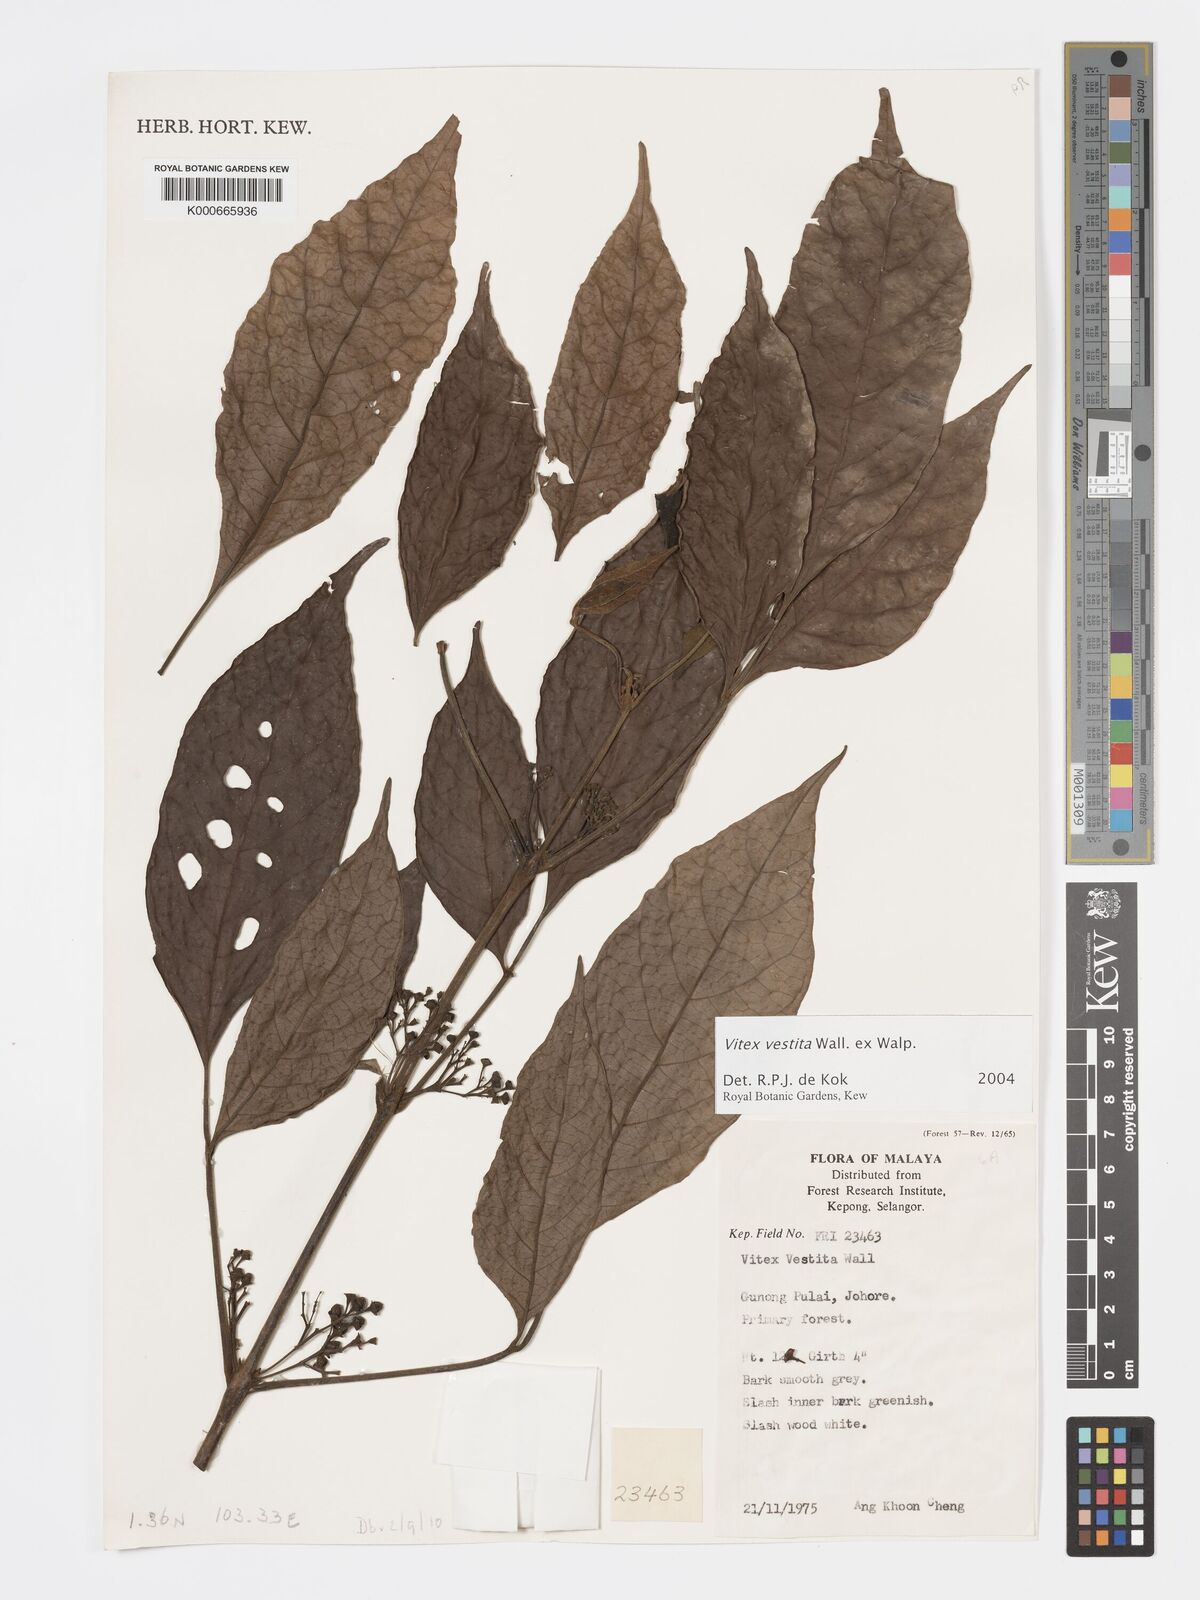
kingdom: Plantae
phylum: Tracheophyta
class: Magnoliopsida
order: Lamiales
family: Lamiaceae
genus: Vitex
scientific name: Vitex vestita
